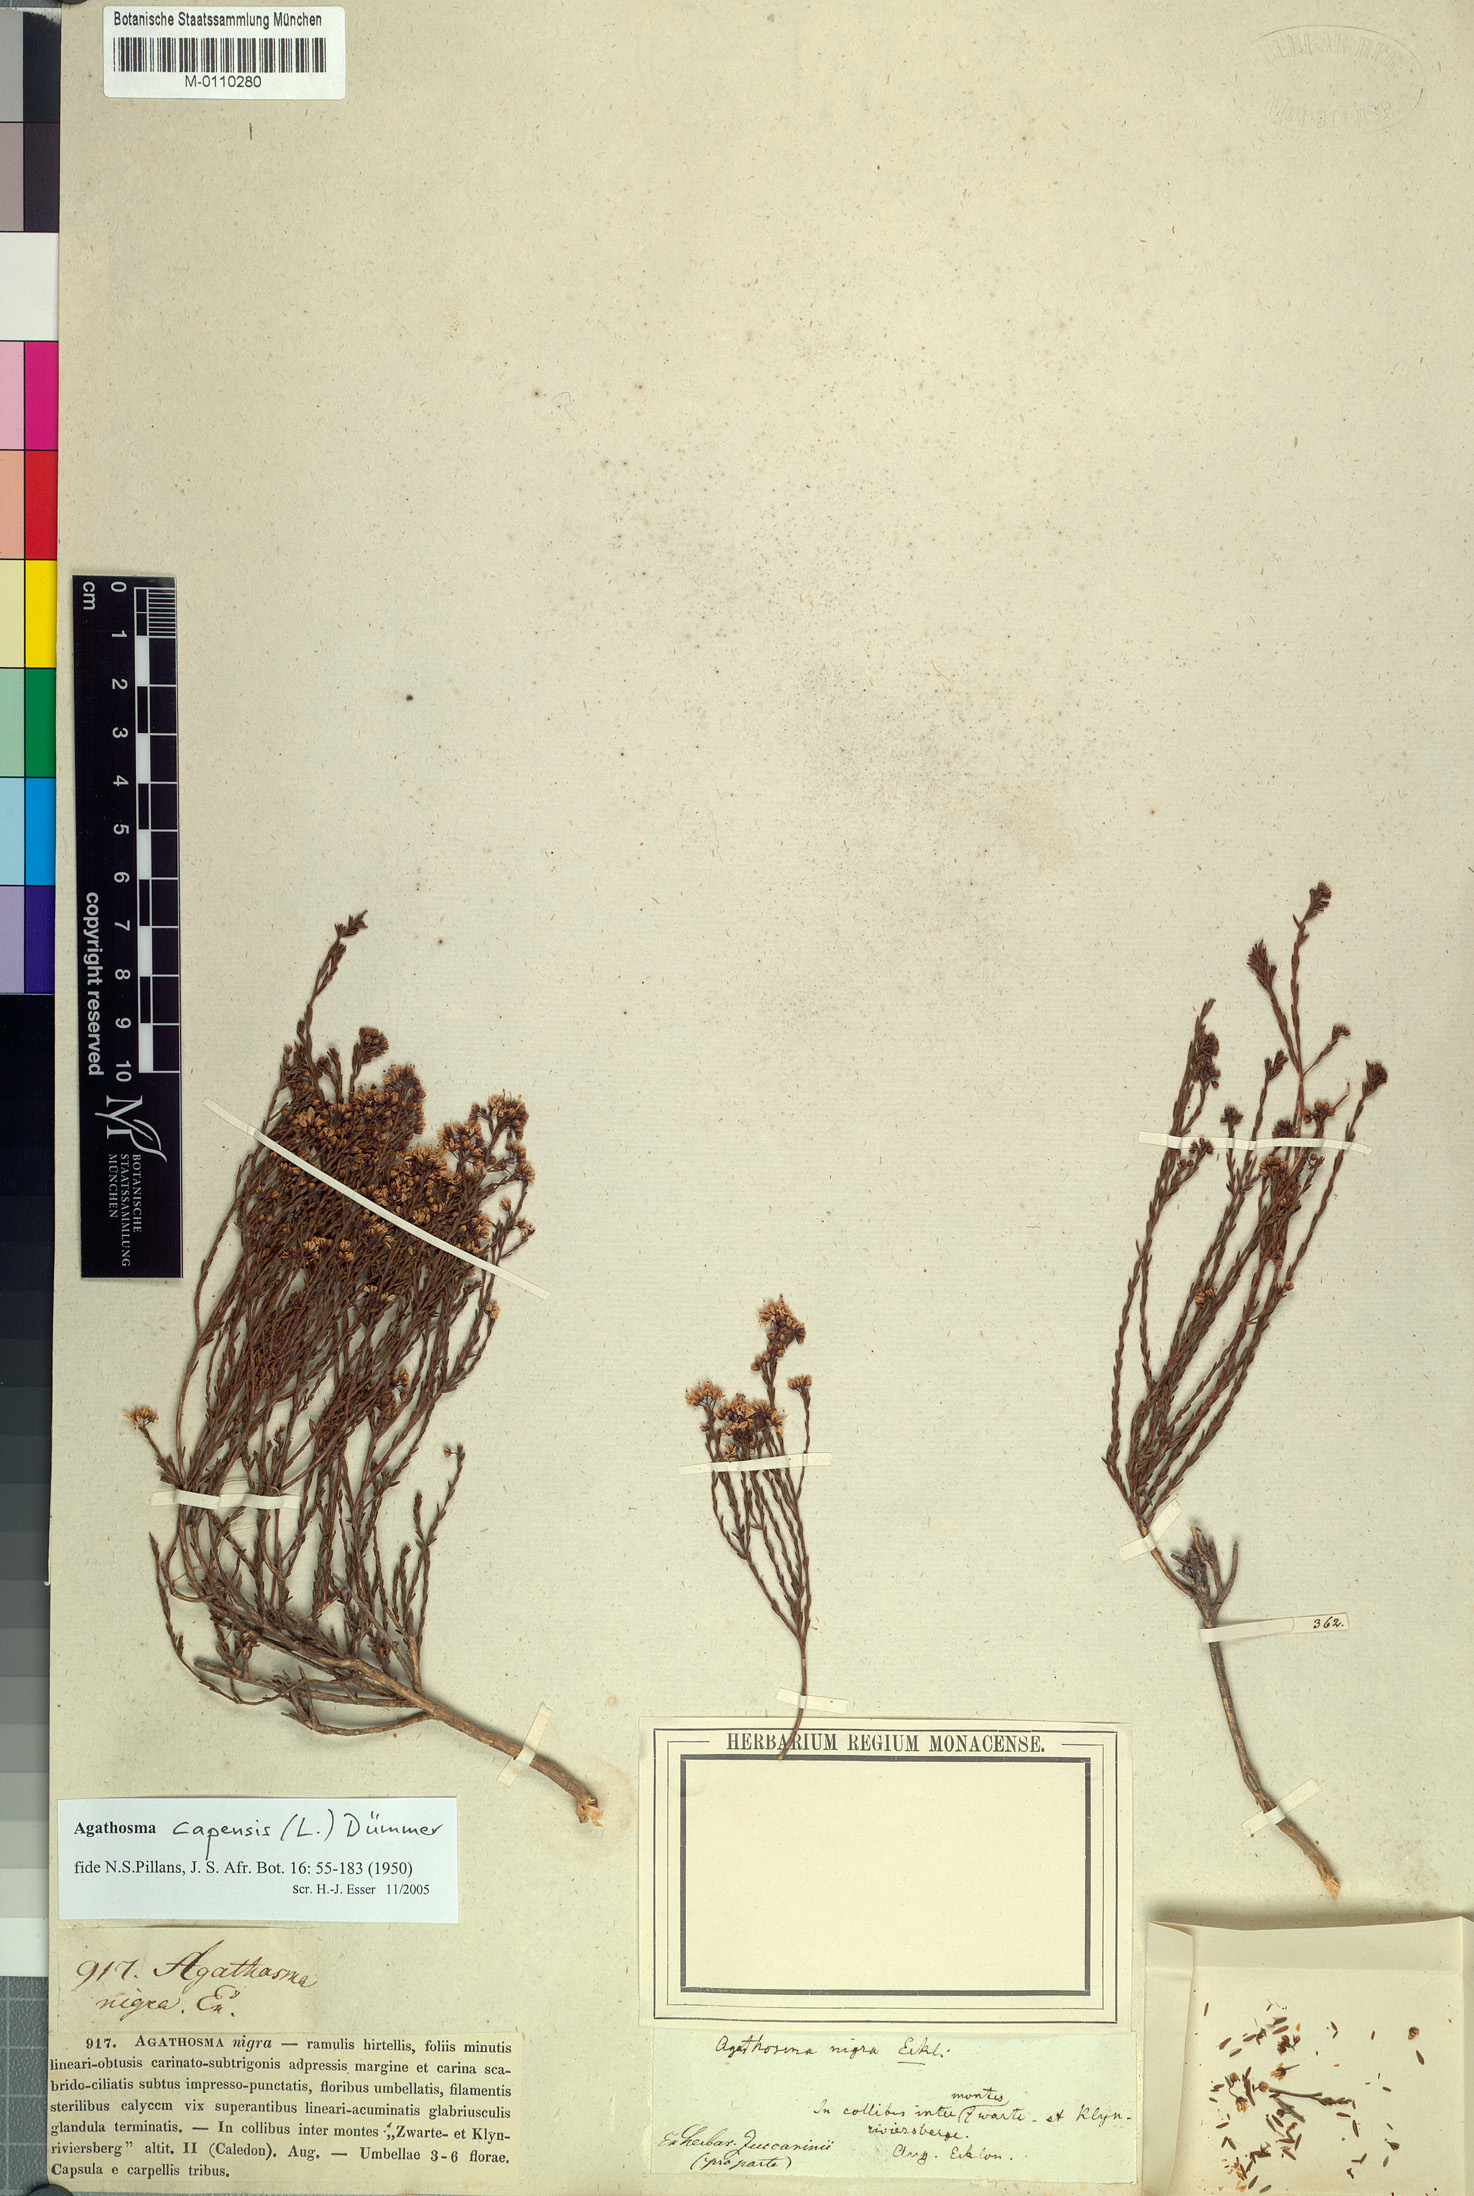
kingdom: Plantae
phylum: Tracheophyta
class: Magnoliopsida
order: Sapindales
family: Rutaceae
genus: Agathosma
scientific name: Agathosma capensis
